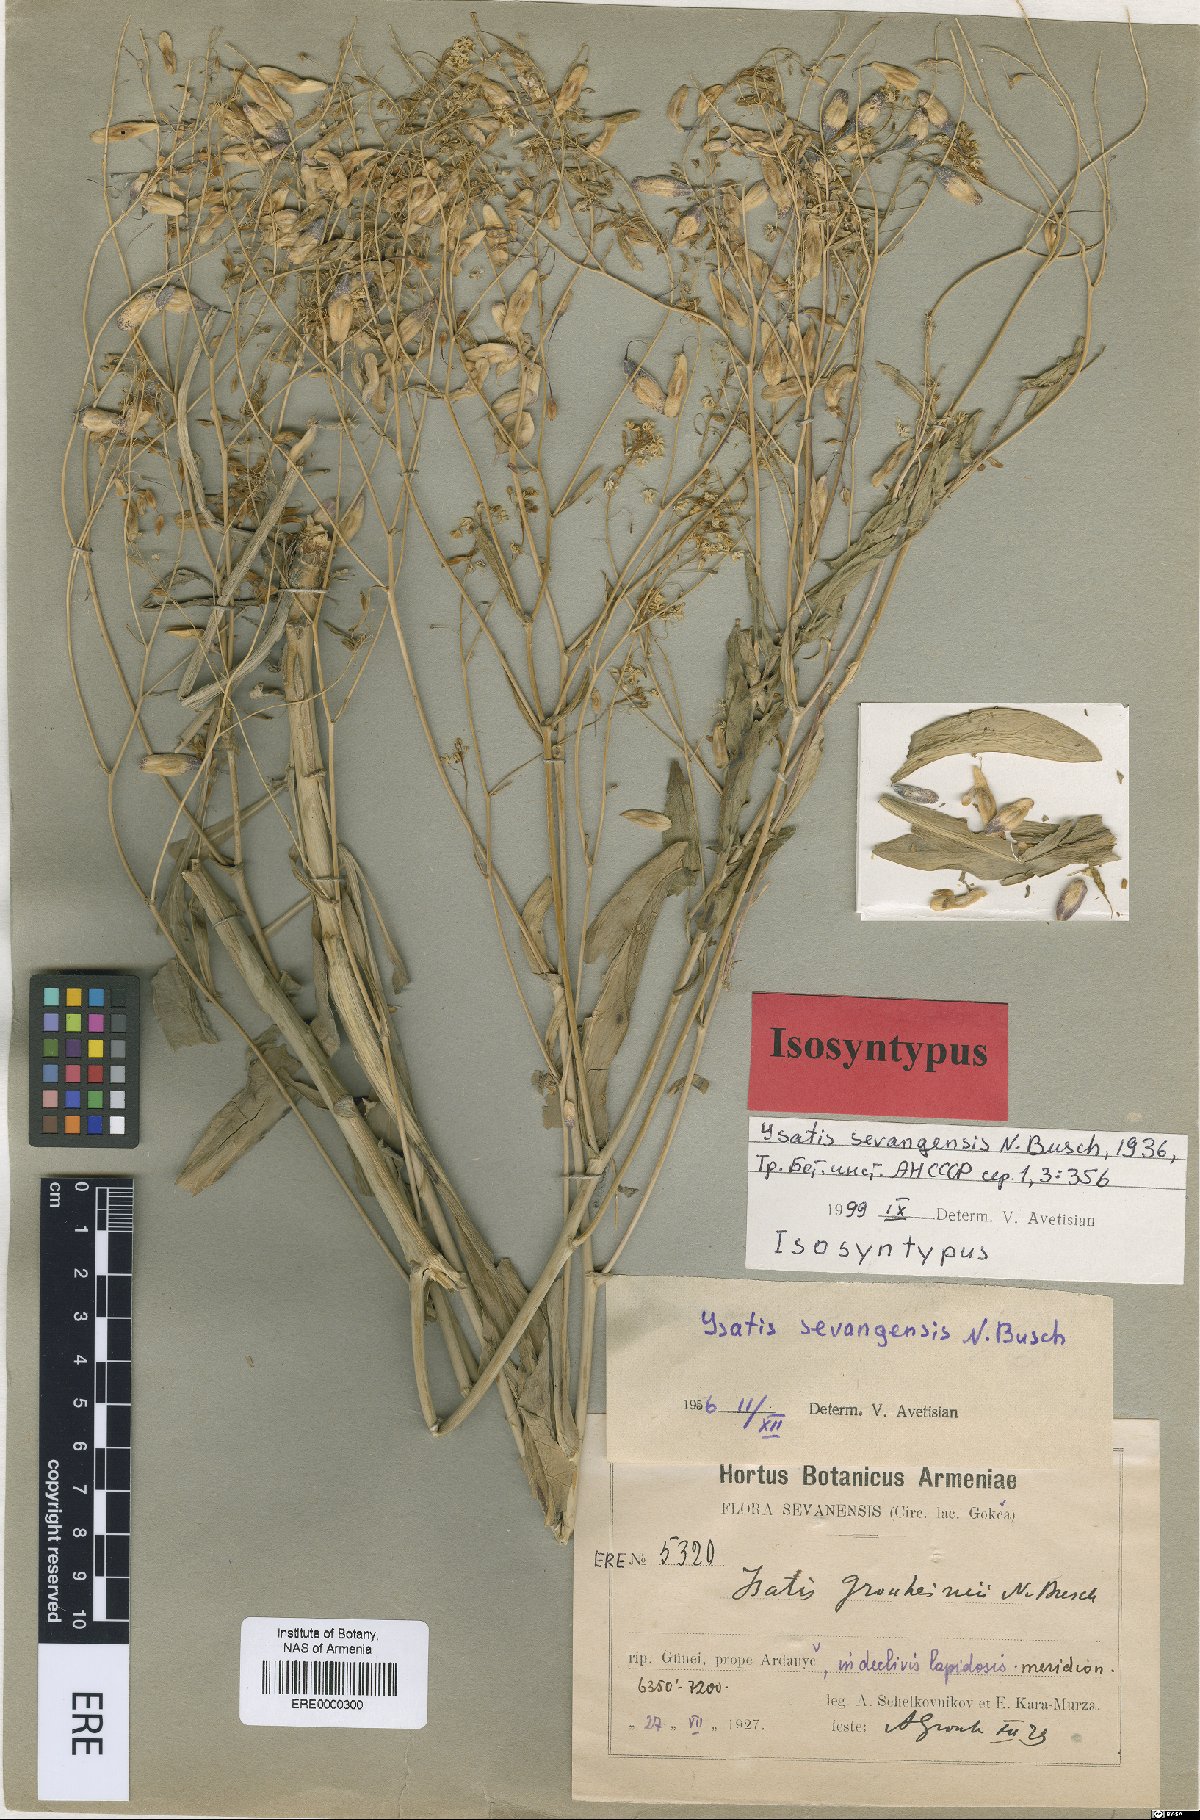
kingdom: Plantae
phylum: Tracheophyta
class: Magnoliopsida
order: Brassicales
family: Brassicaceae
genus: Isatis
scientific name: Isatis sevangensis
